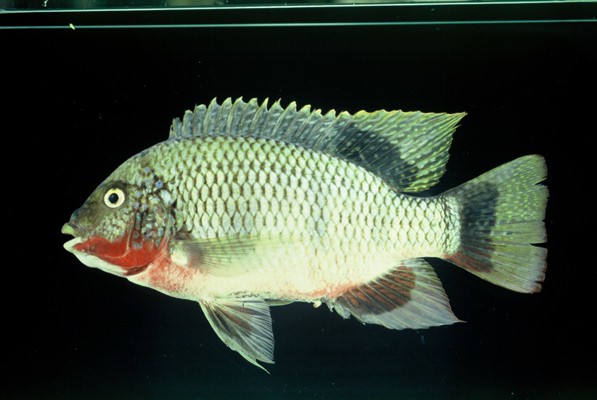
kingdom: Animalia
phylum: Chordata
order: Perciformes
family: Cichlidae
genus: Coptodon
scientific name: Coptodon rendalli
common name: Redbreast tilapia
